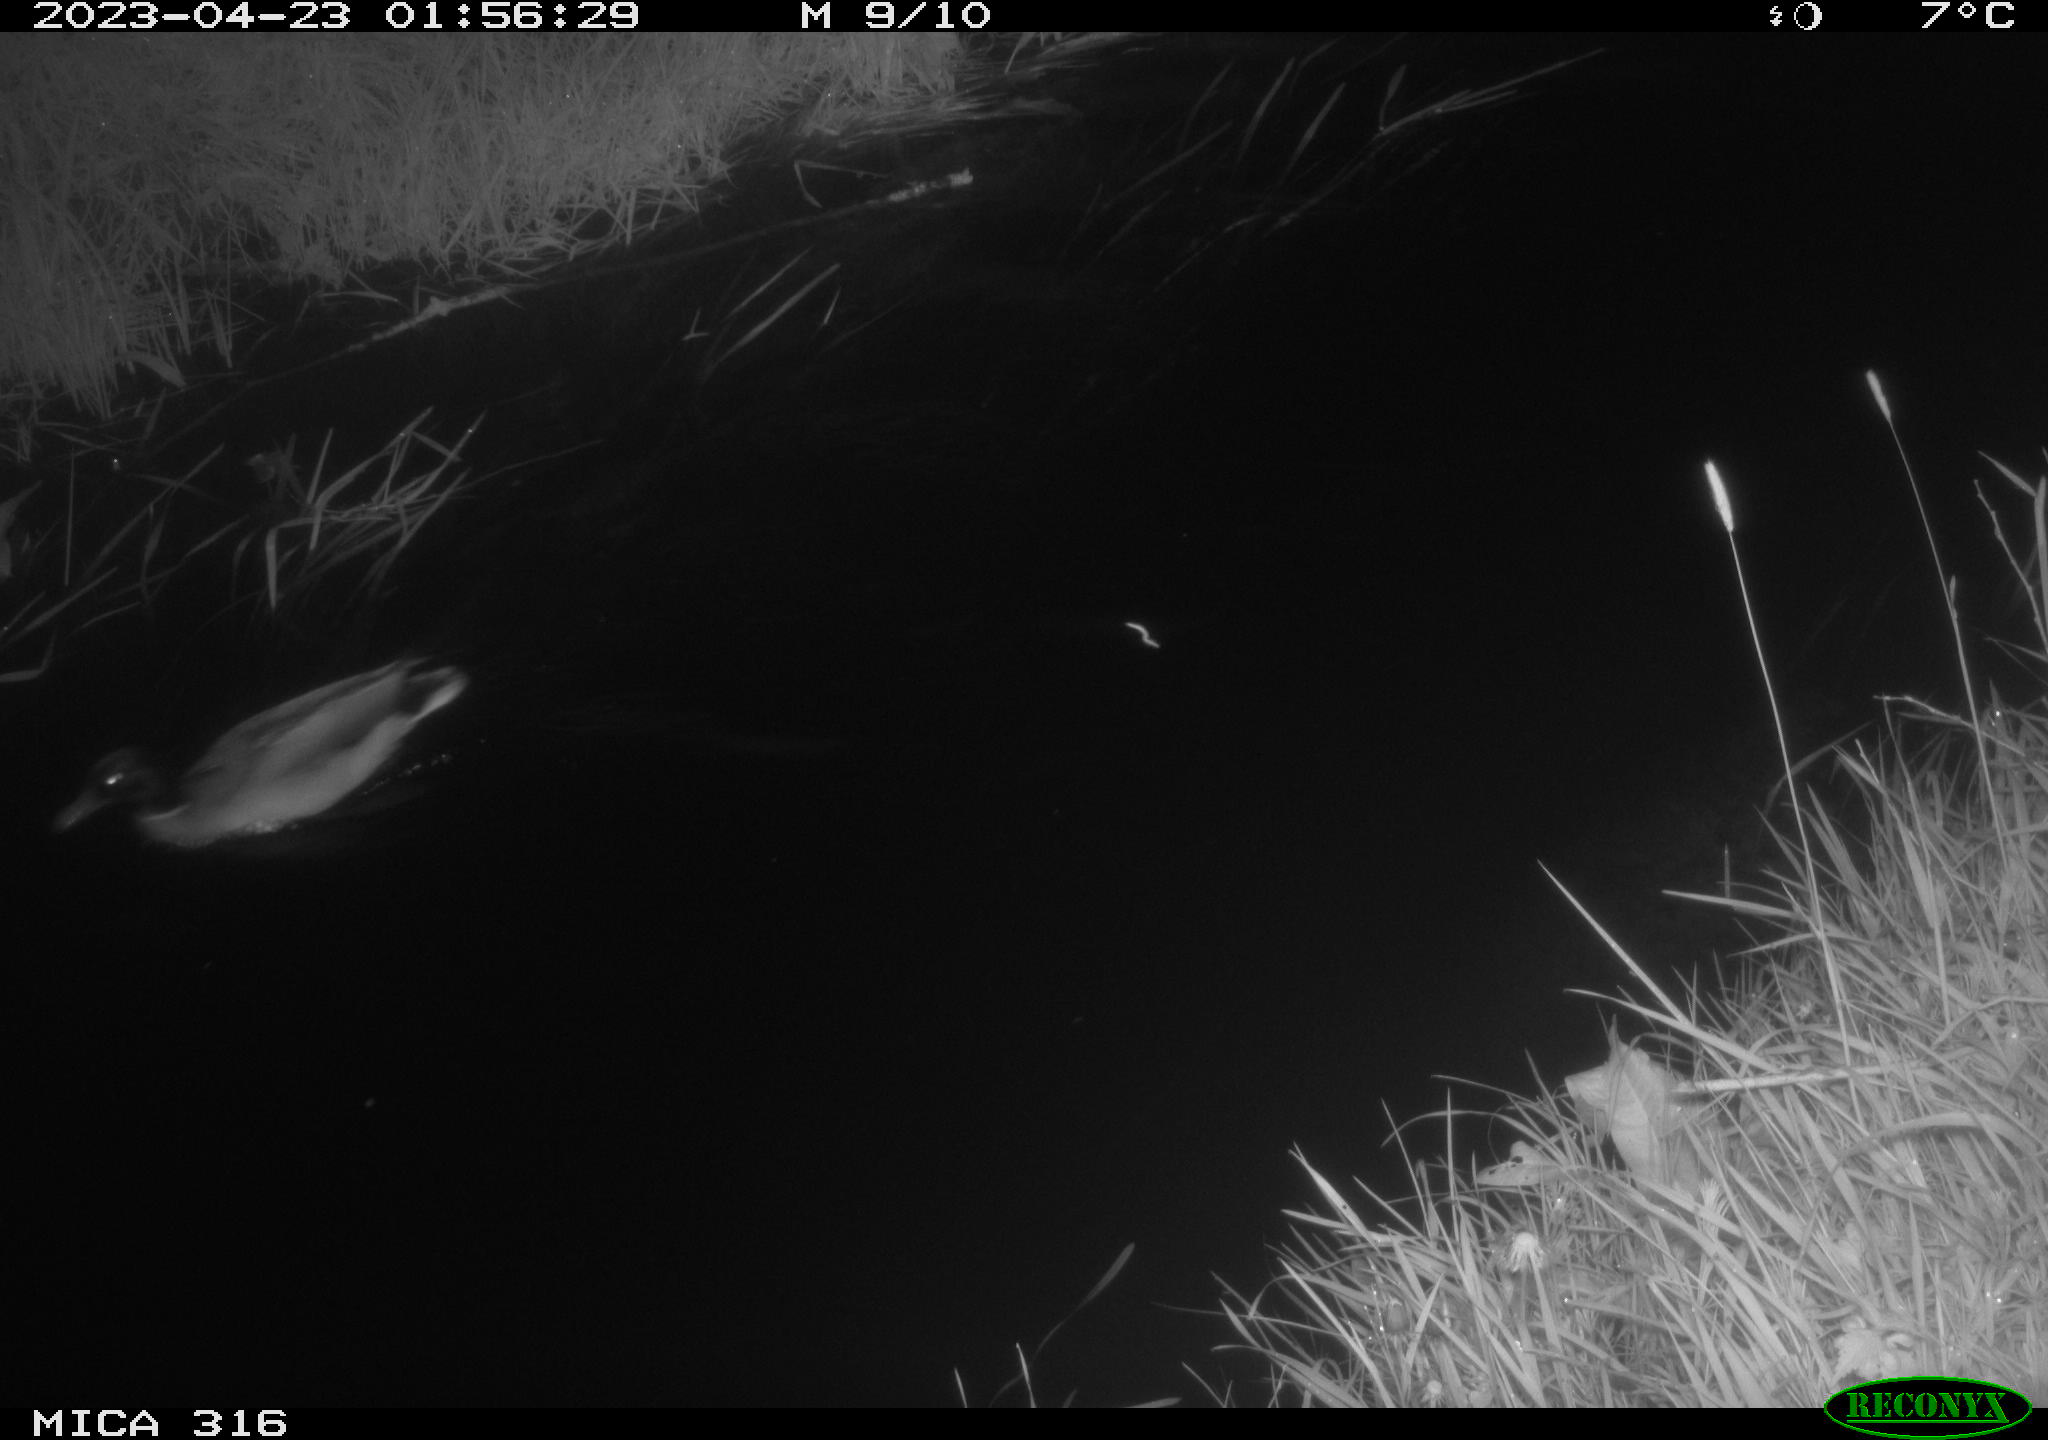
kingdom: Animalia
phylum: Chordata
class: Aves
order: Anseriformes
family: Anatidae
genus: Anas
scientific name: Anas
